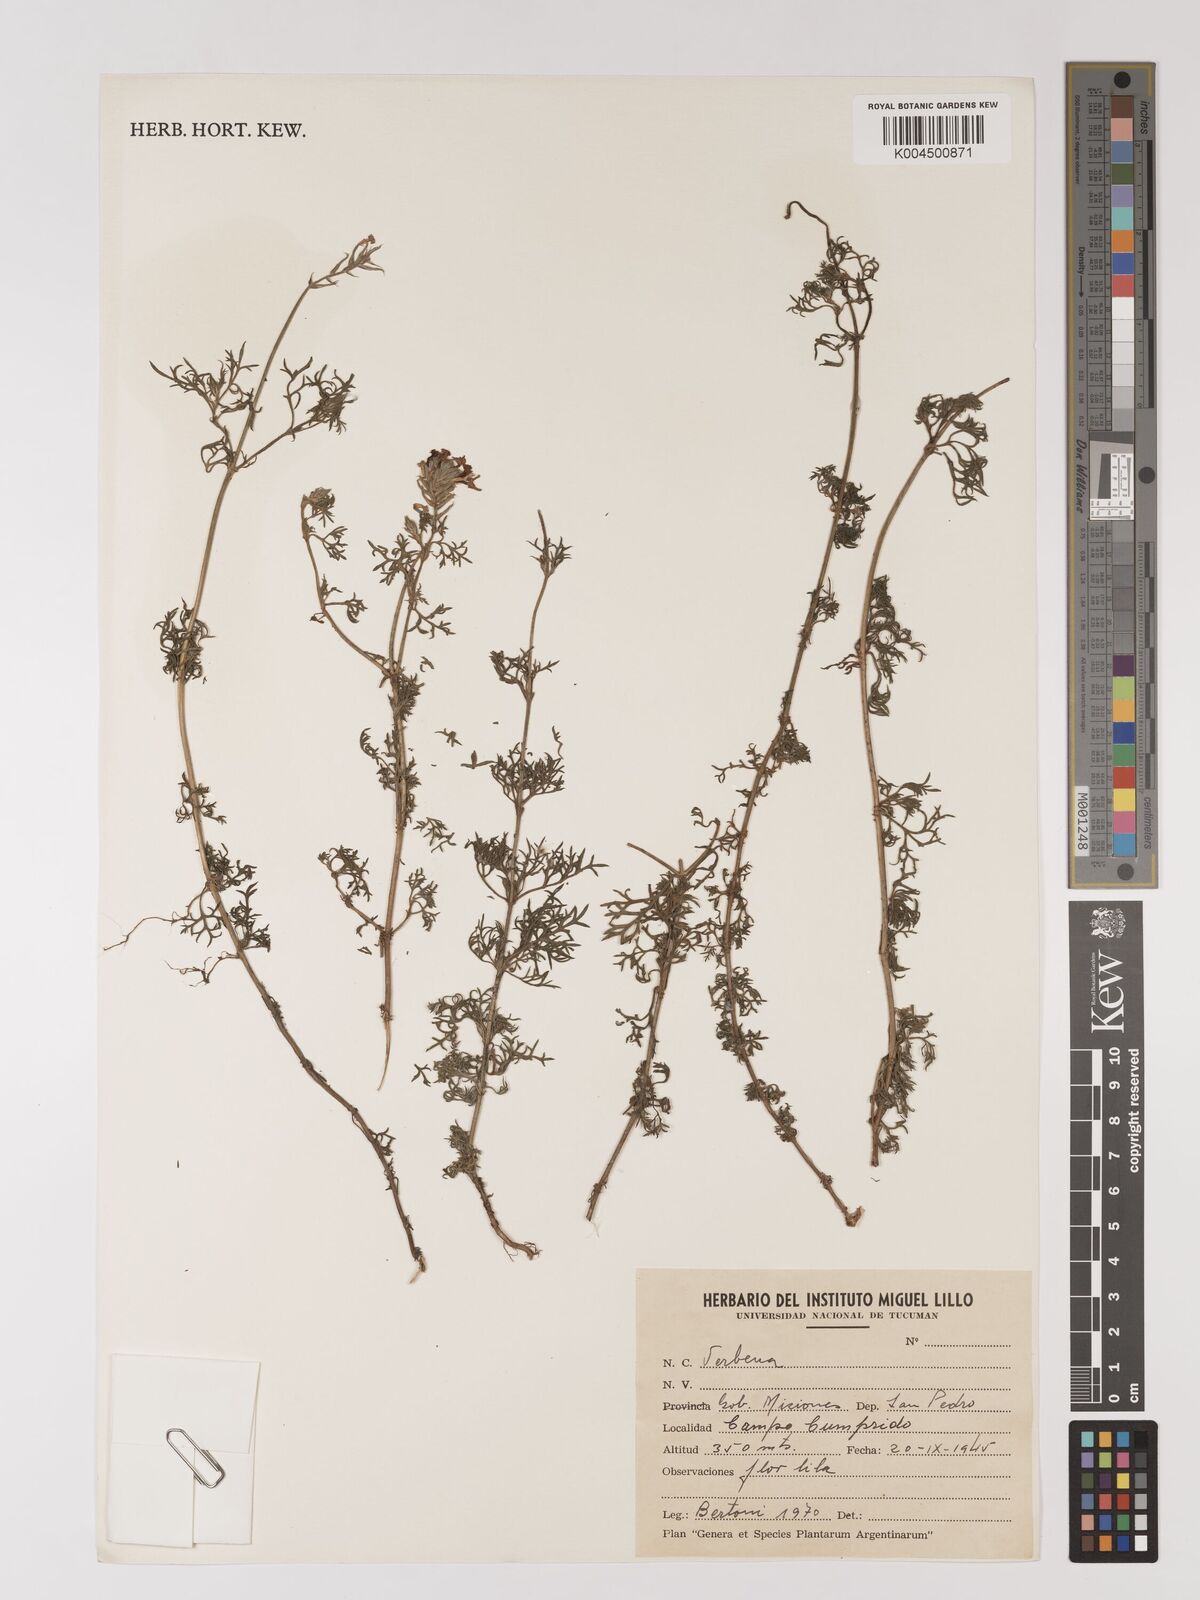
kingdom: Plantae
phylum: Tracheophyta
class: Magnoliopsida
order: Lamiales
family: Verbenaceae
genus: Verbena
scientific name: Verbena
